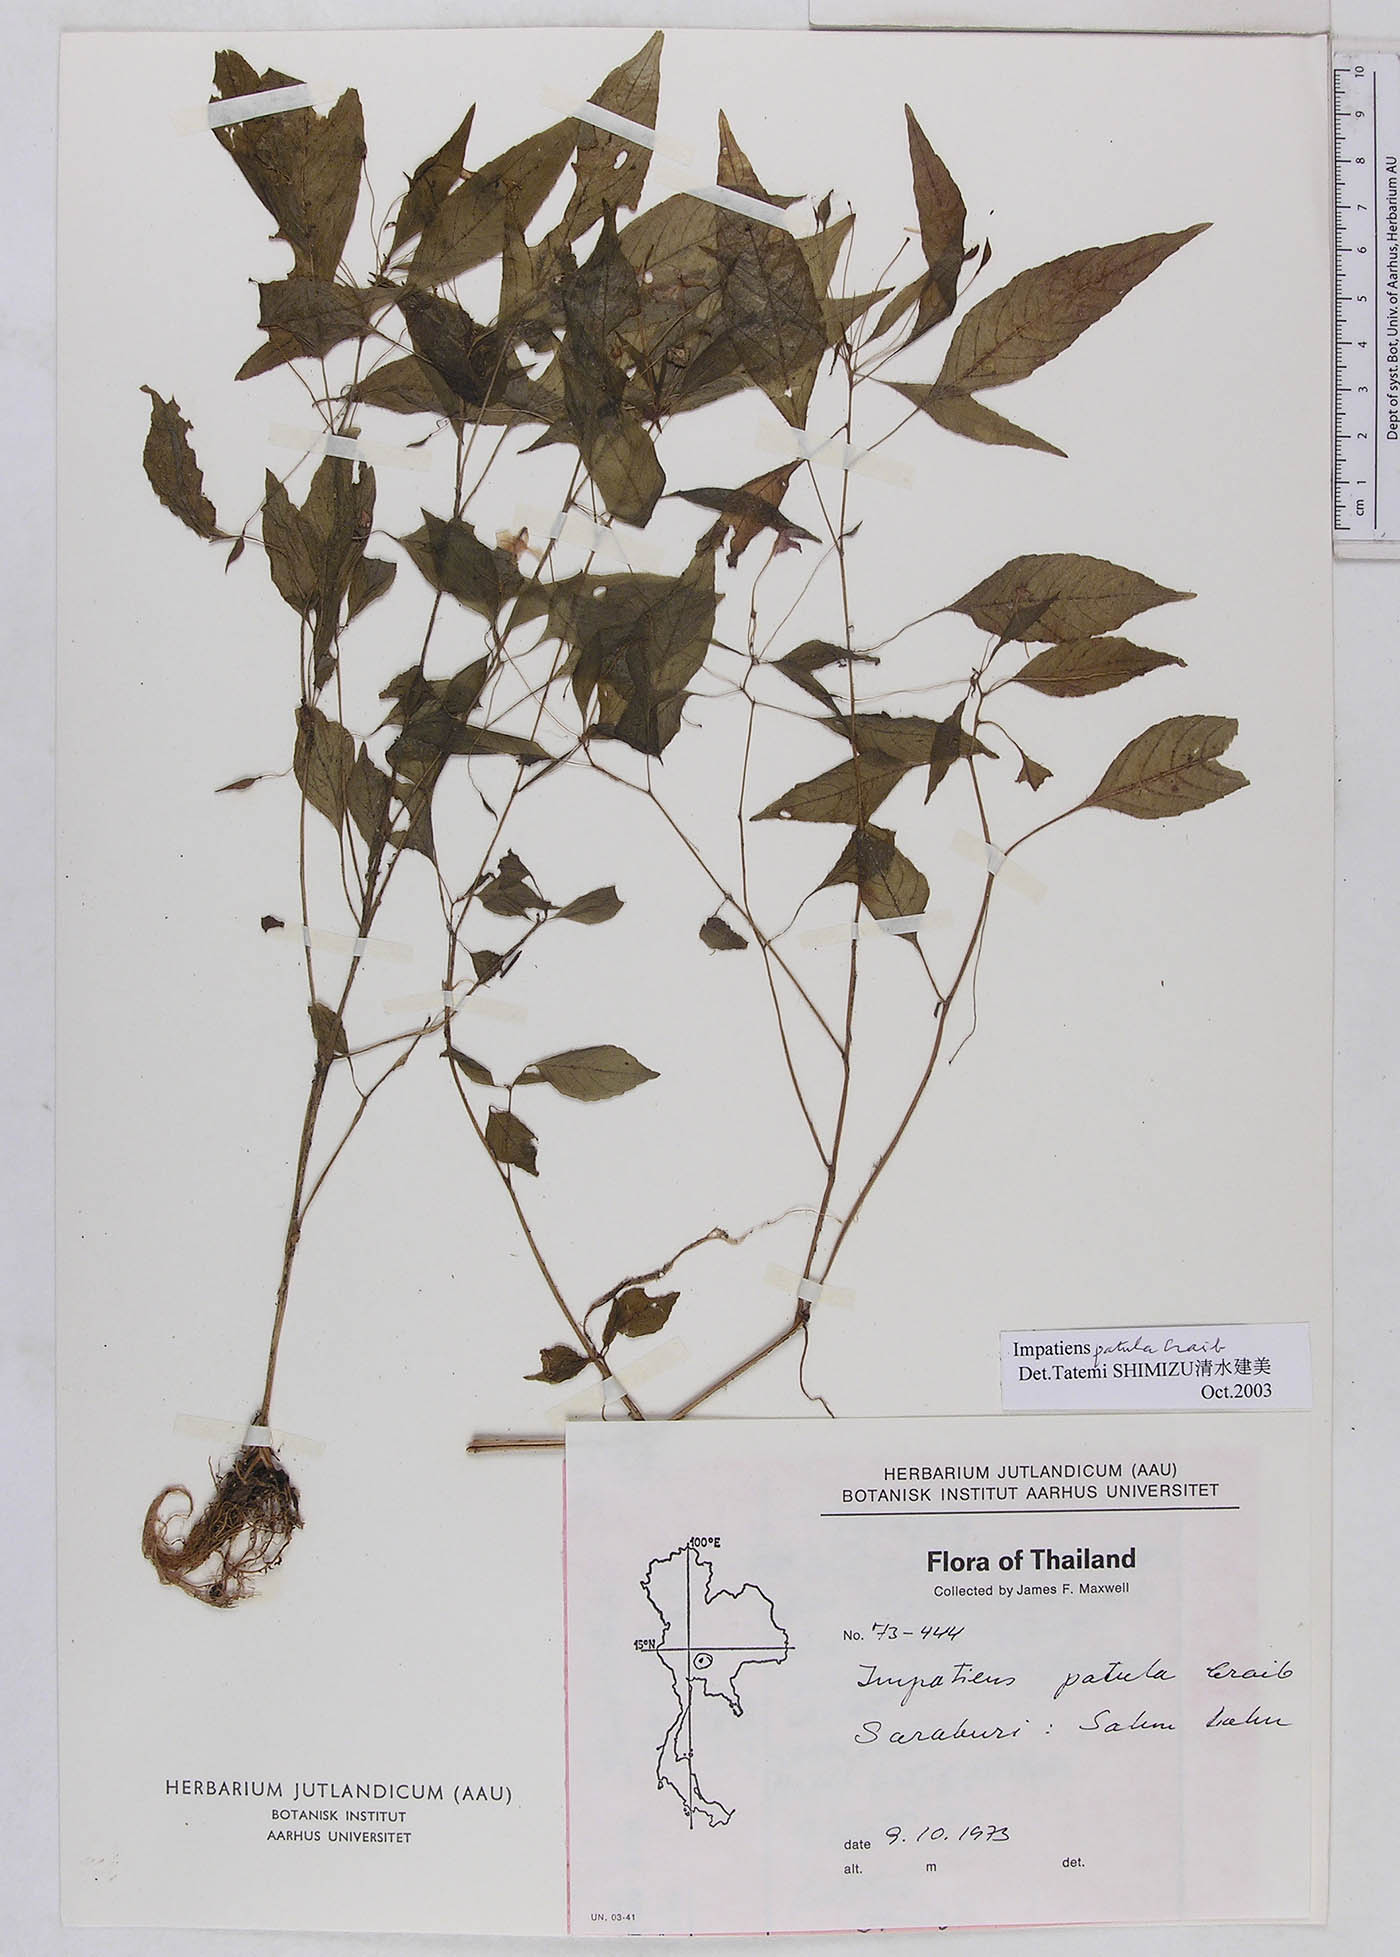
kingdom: Plantae
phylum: Tracheophyta
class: Magnoliopsida
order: Ericales
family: Balsaminaceae
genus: Impatiens
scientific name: Impatiens noei
